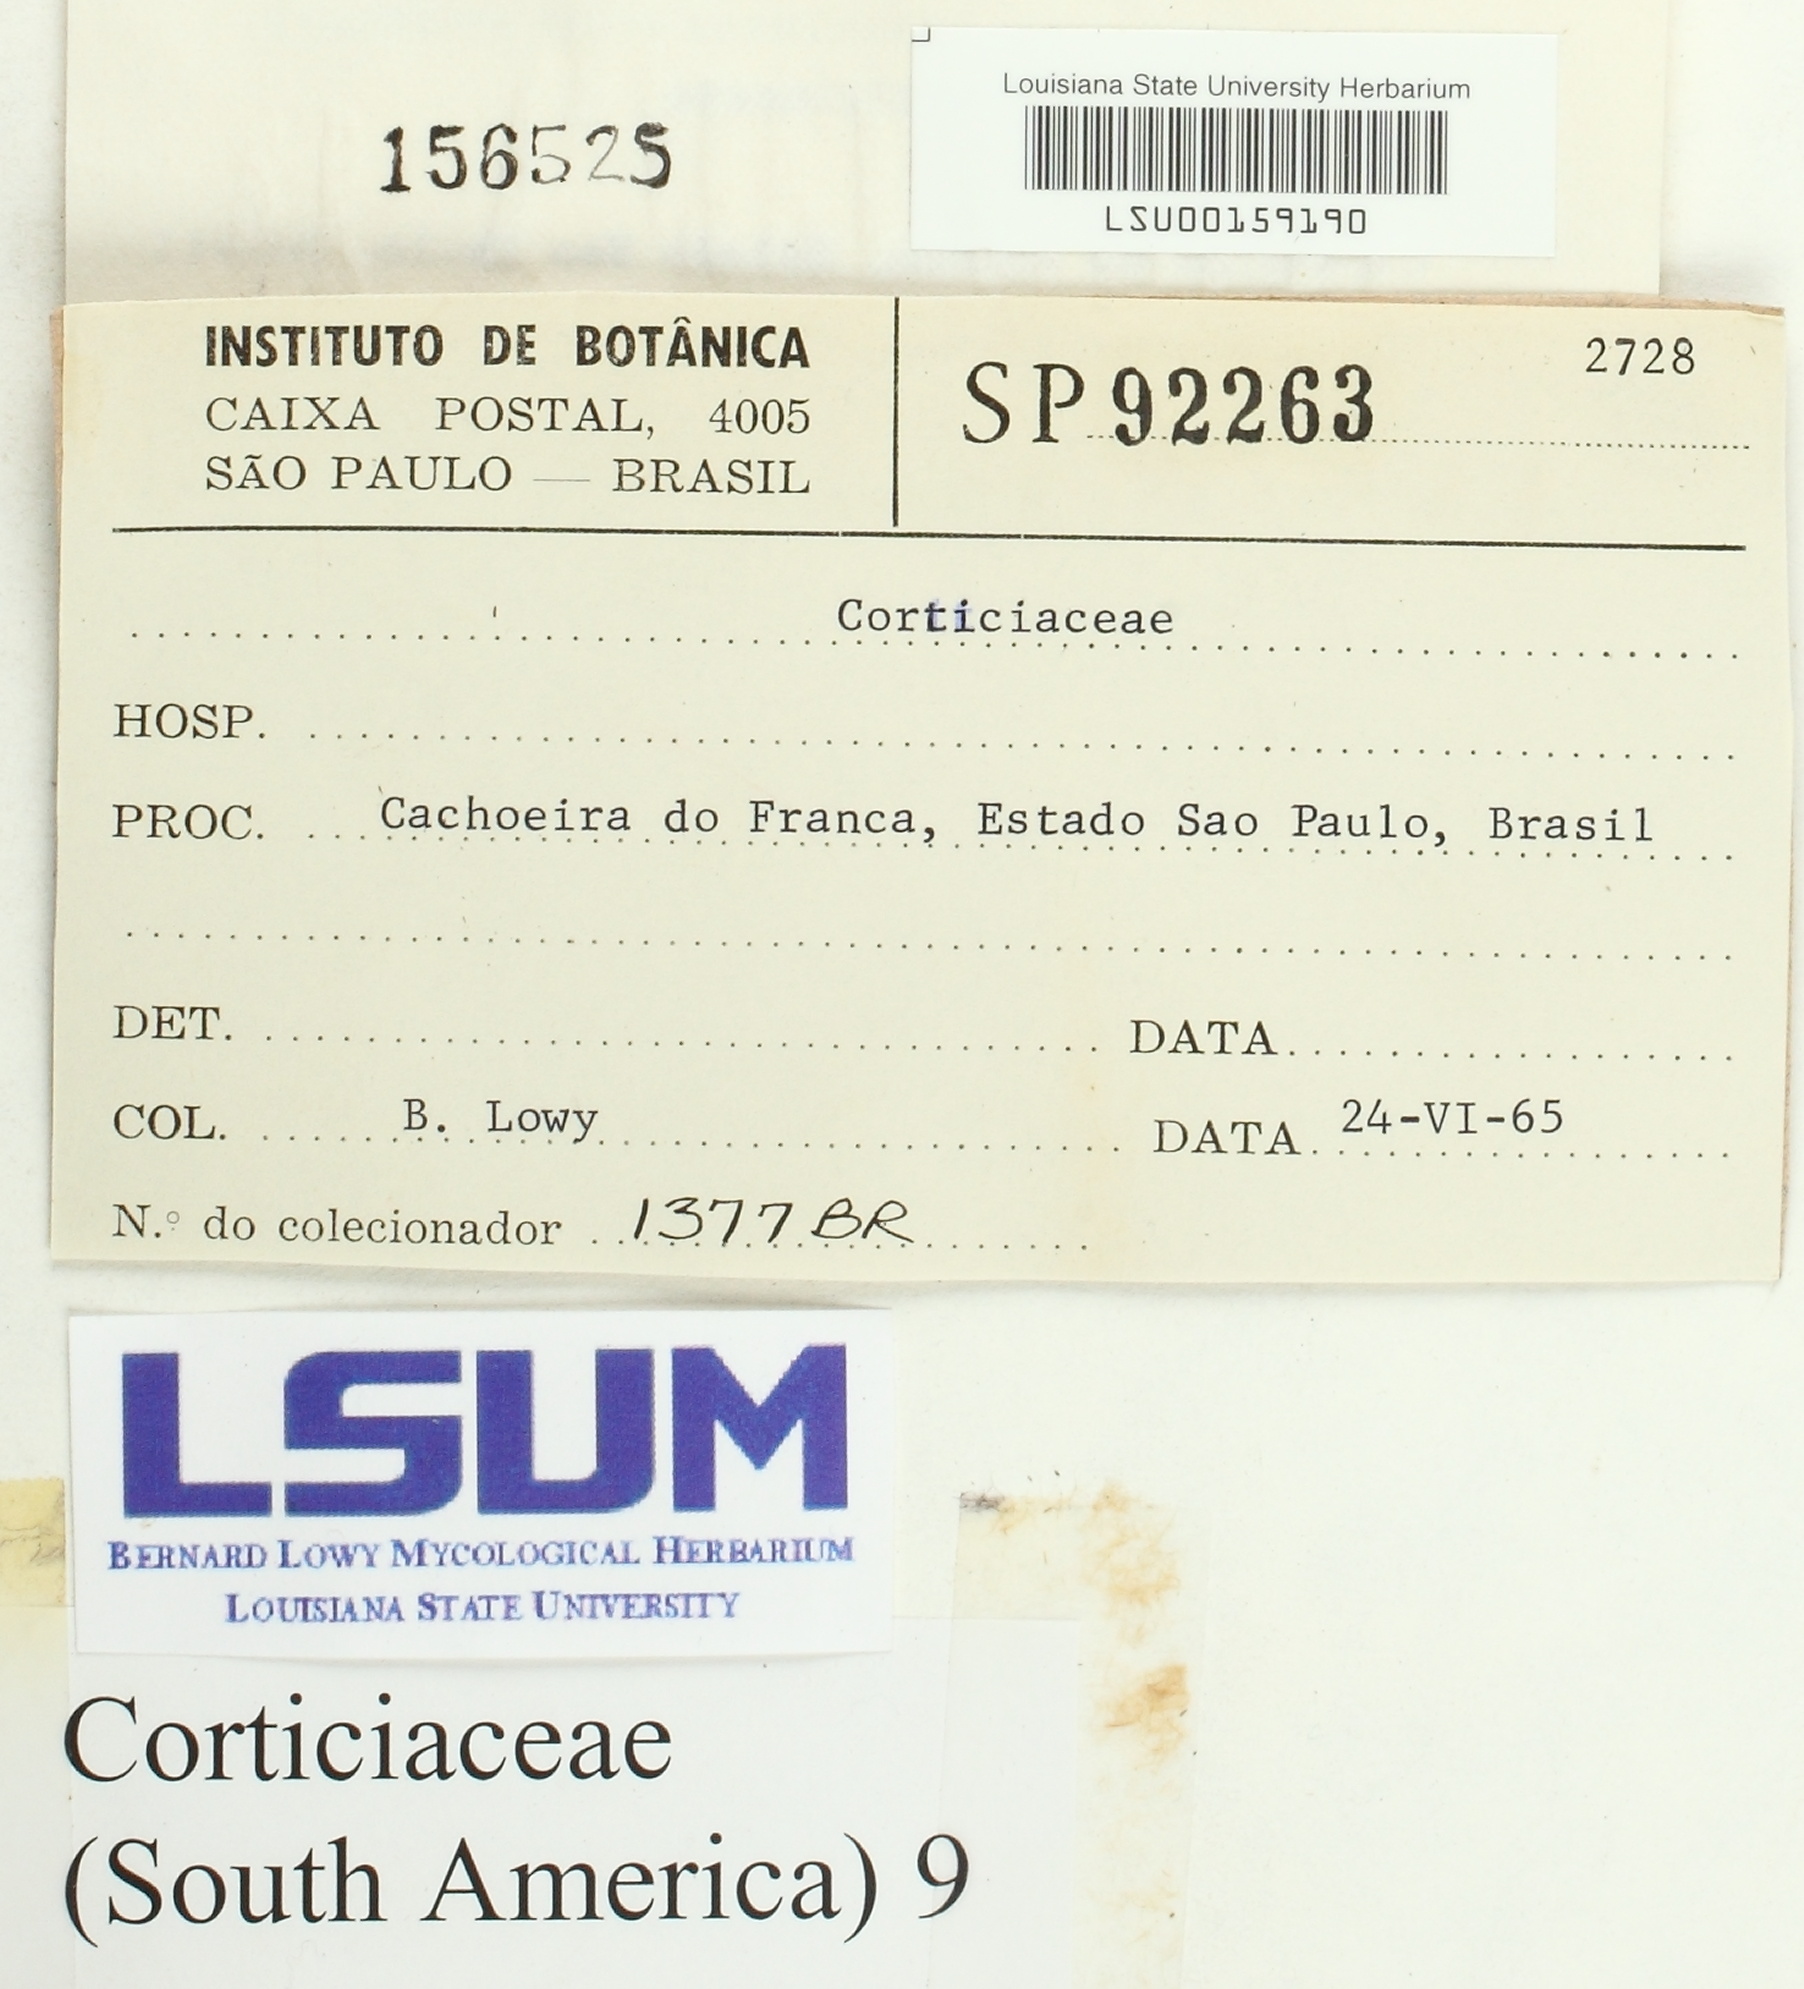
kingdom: Fungi
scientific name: Fungi
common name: Fungi
